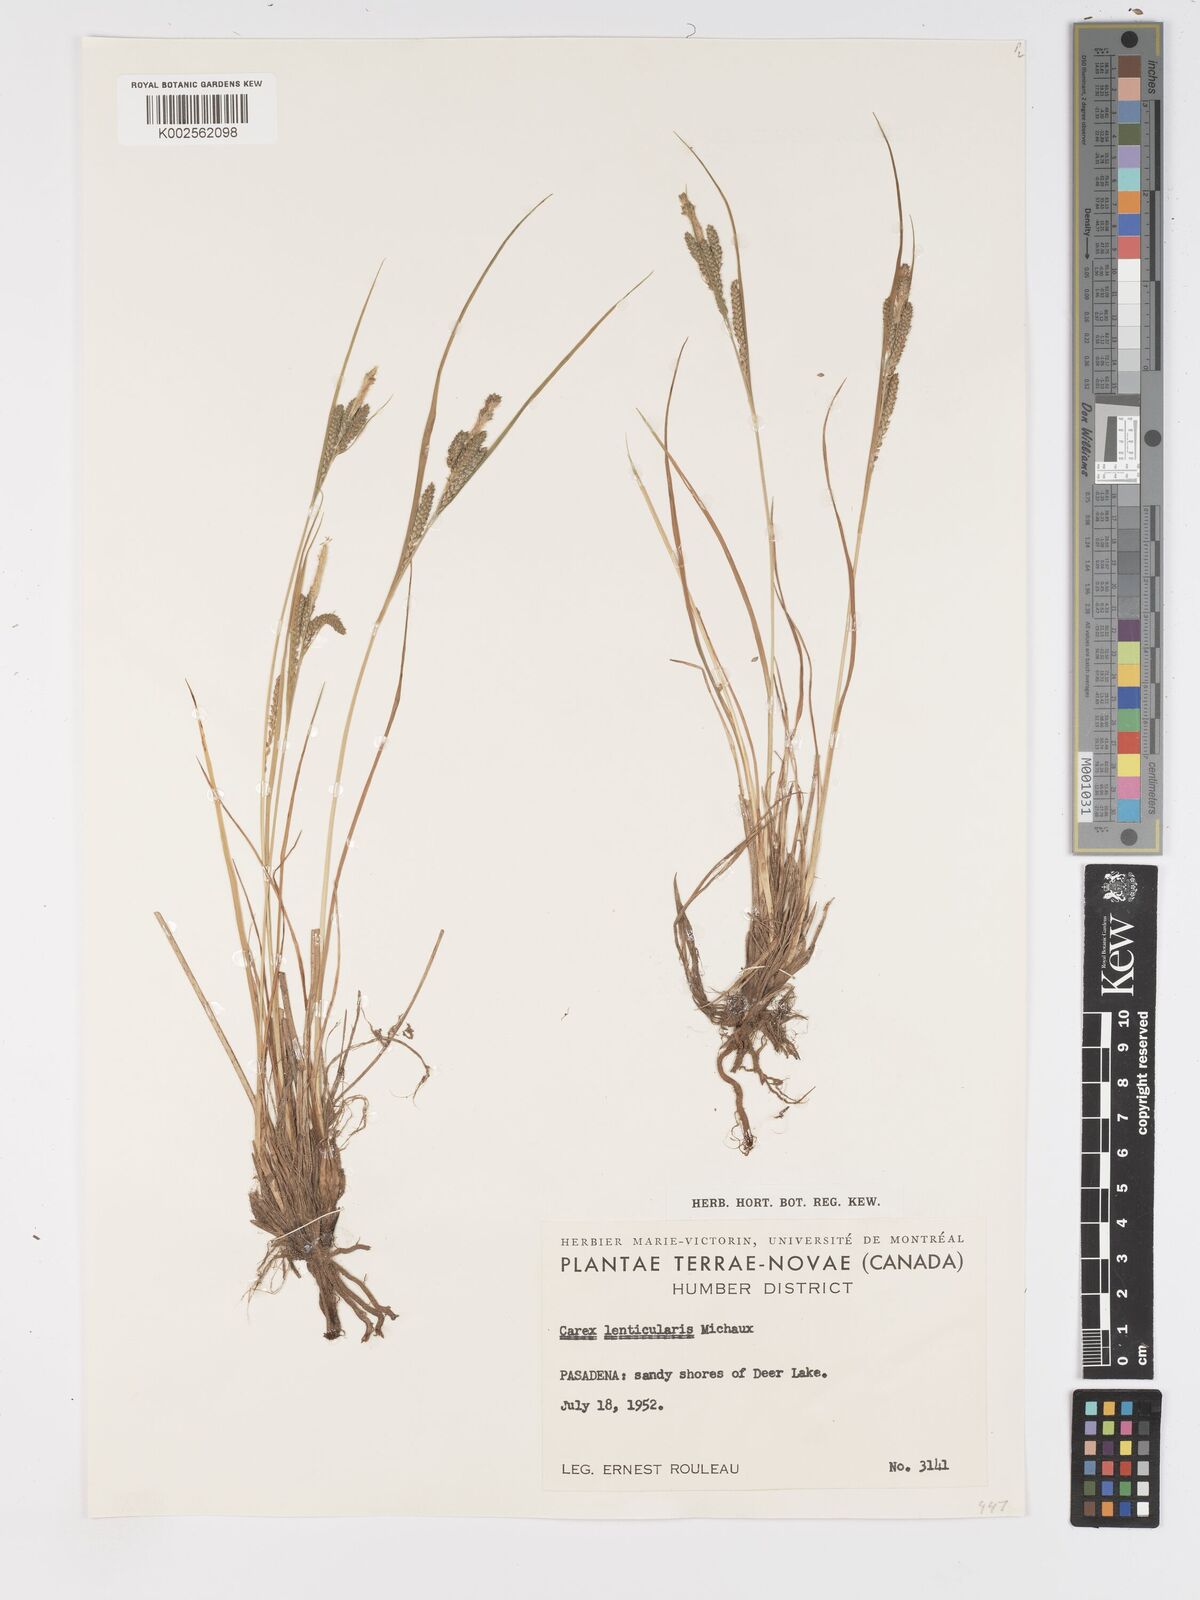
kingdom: Plantae
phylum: Tracheophyta
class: Liliopsida
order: Poales
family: Cyperaceae
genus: Carex
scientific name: Carex lenticularis
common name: Lakeshore sedge
